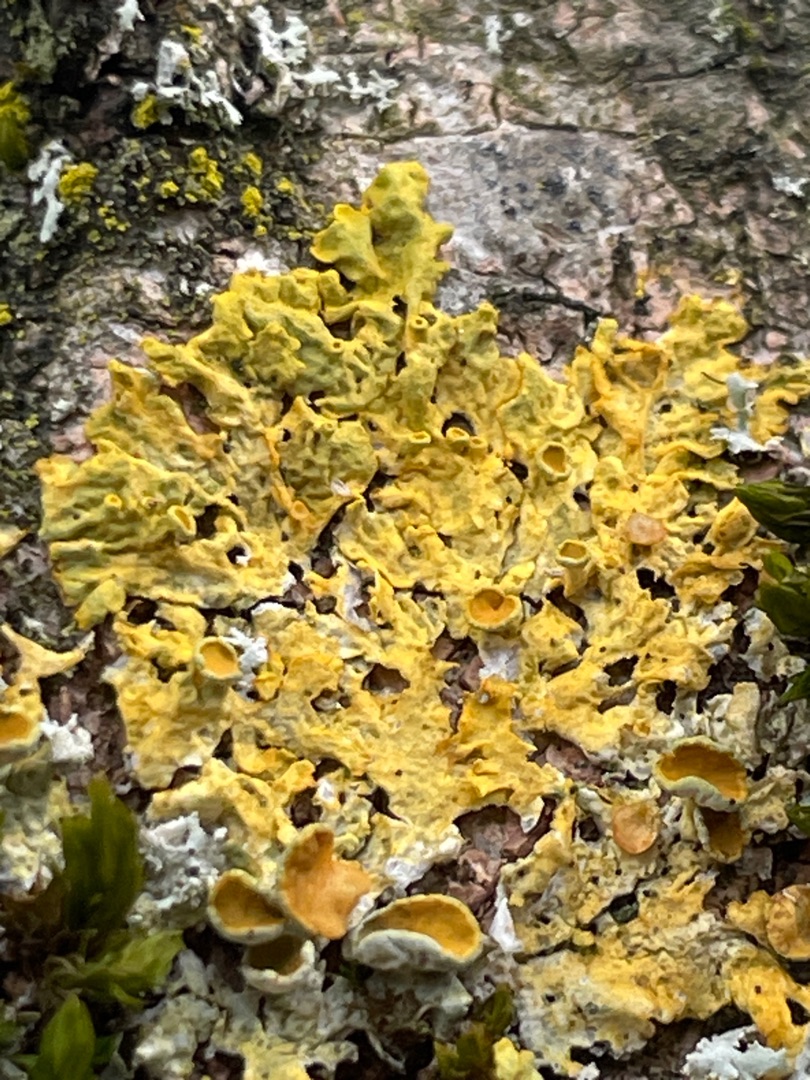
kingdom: Fungi
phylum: Ascomycota
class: Lecanoromycetes
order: Teloschistales
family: Teloschistaceae
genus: Xanthoria
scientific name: Xanthoria parietina
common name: Almindelig væggelav
